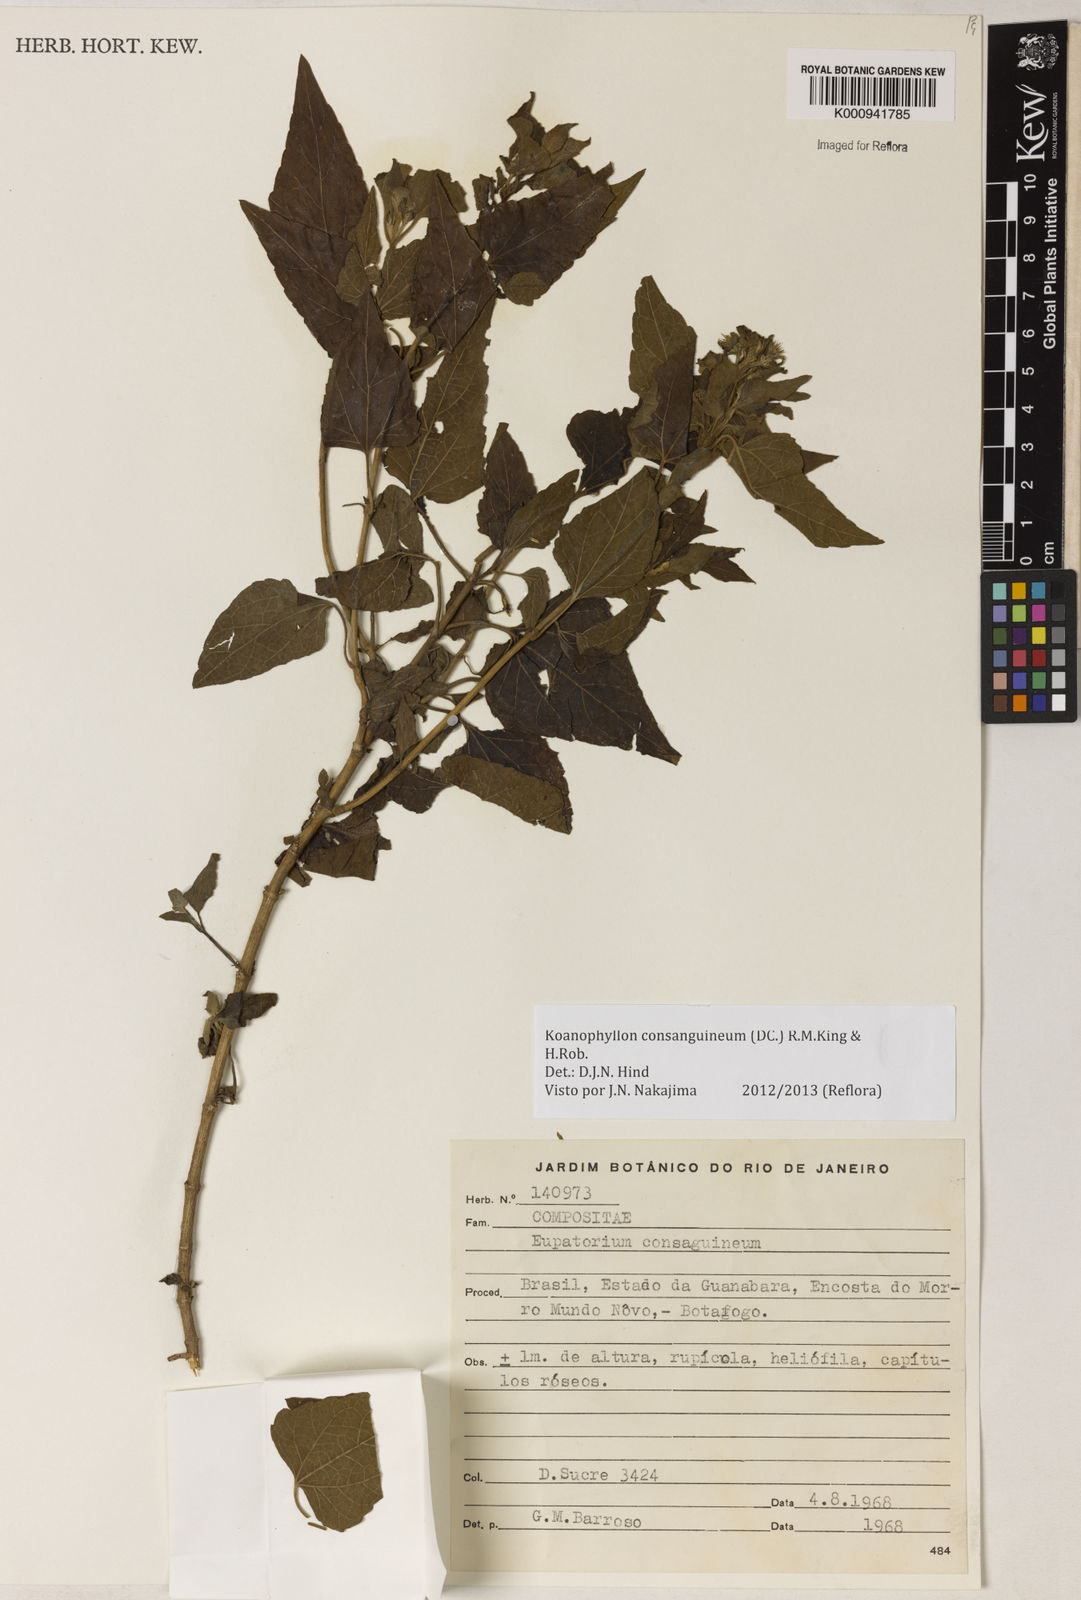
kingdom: Plantae
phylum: Tracheophyta
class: Magnoliopsida
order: Asterales
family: Asteraceae
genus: Koanophyllon
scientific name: Koanophyllon consanguineum
